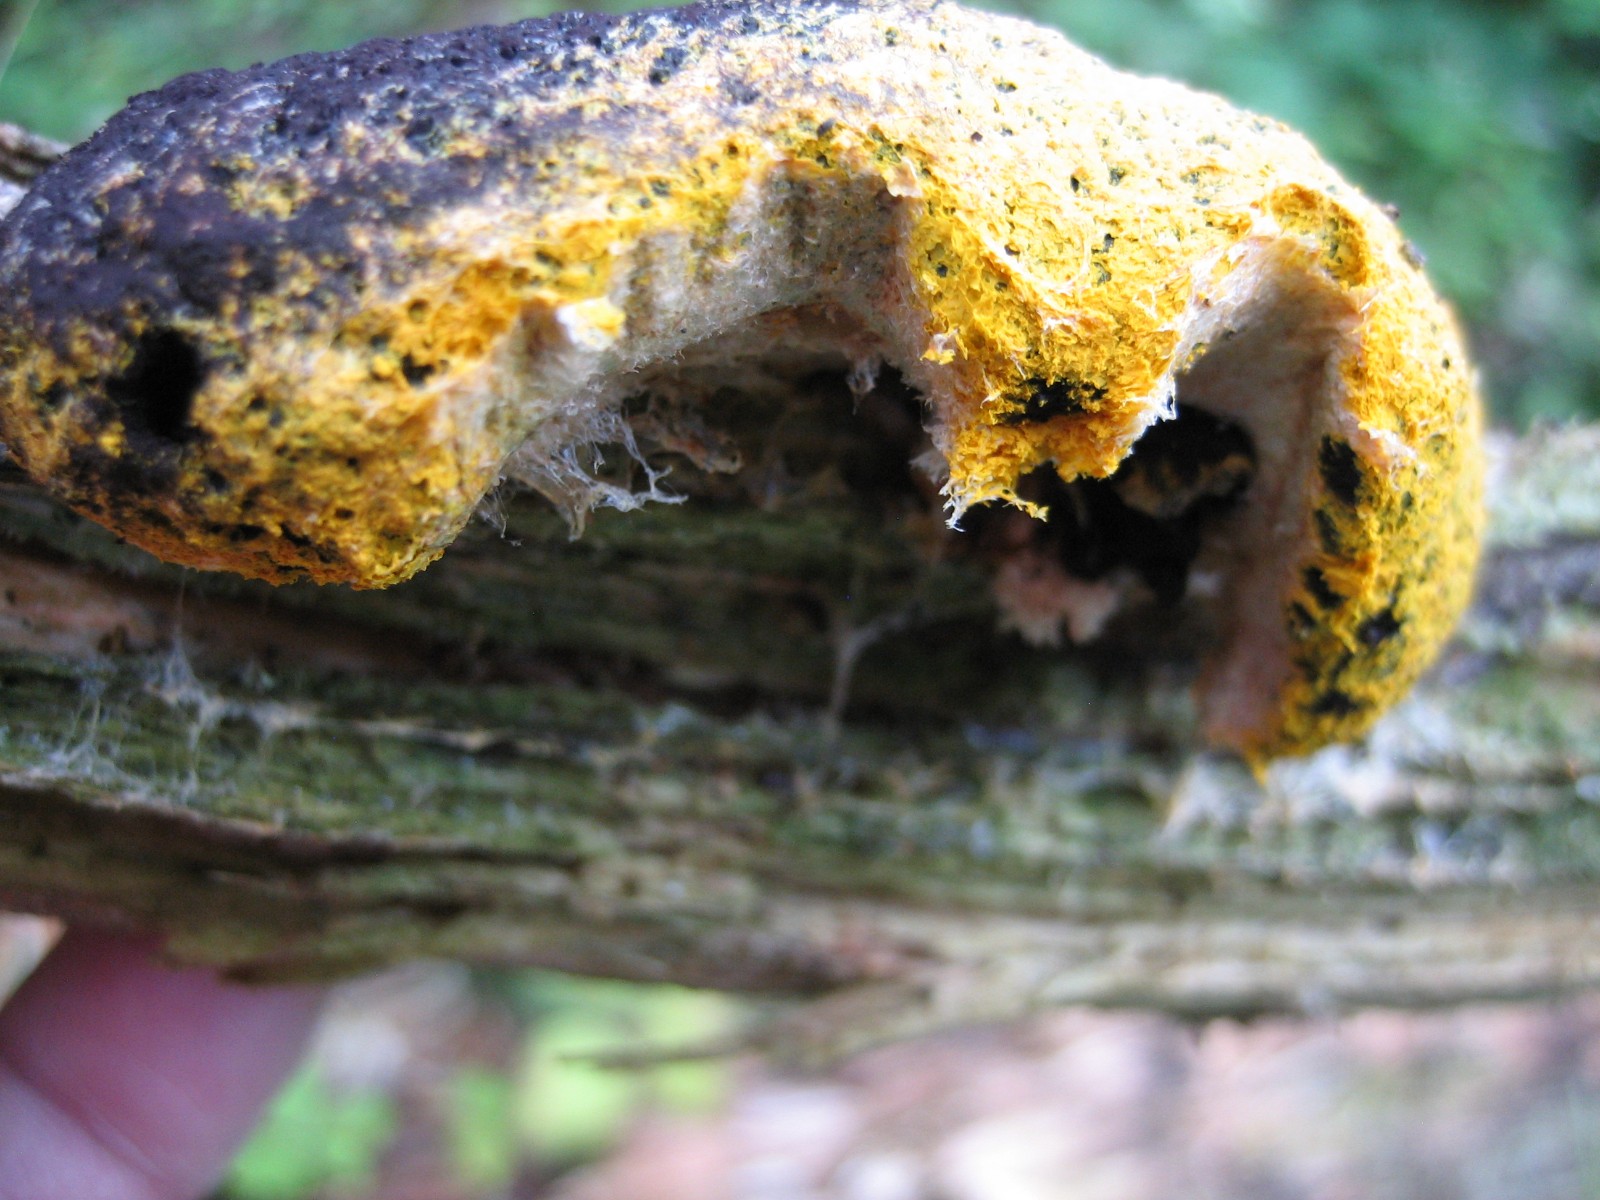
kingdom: Protozoa
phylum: Mycetozoa
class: Myxomycetes
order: Physarales
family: Physaraceae
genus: Fuligo
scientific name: Fuligo septica
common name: gul troldsmør
